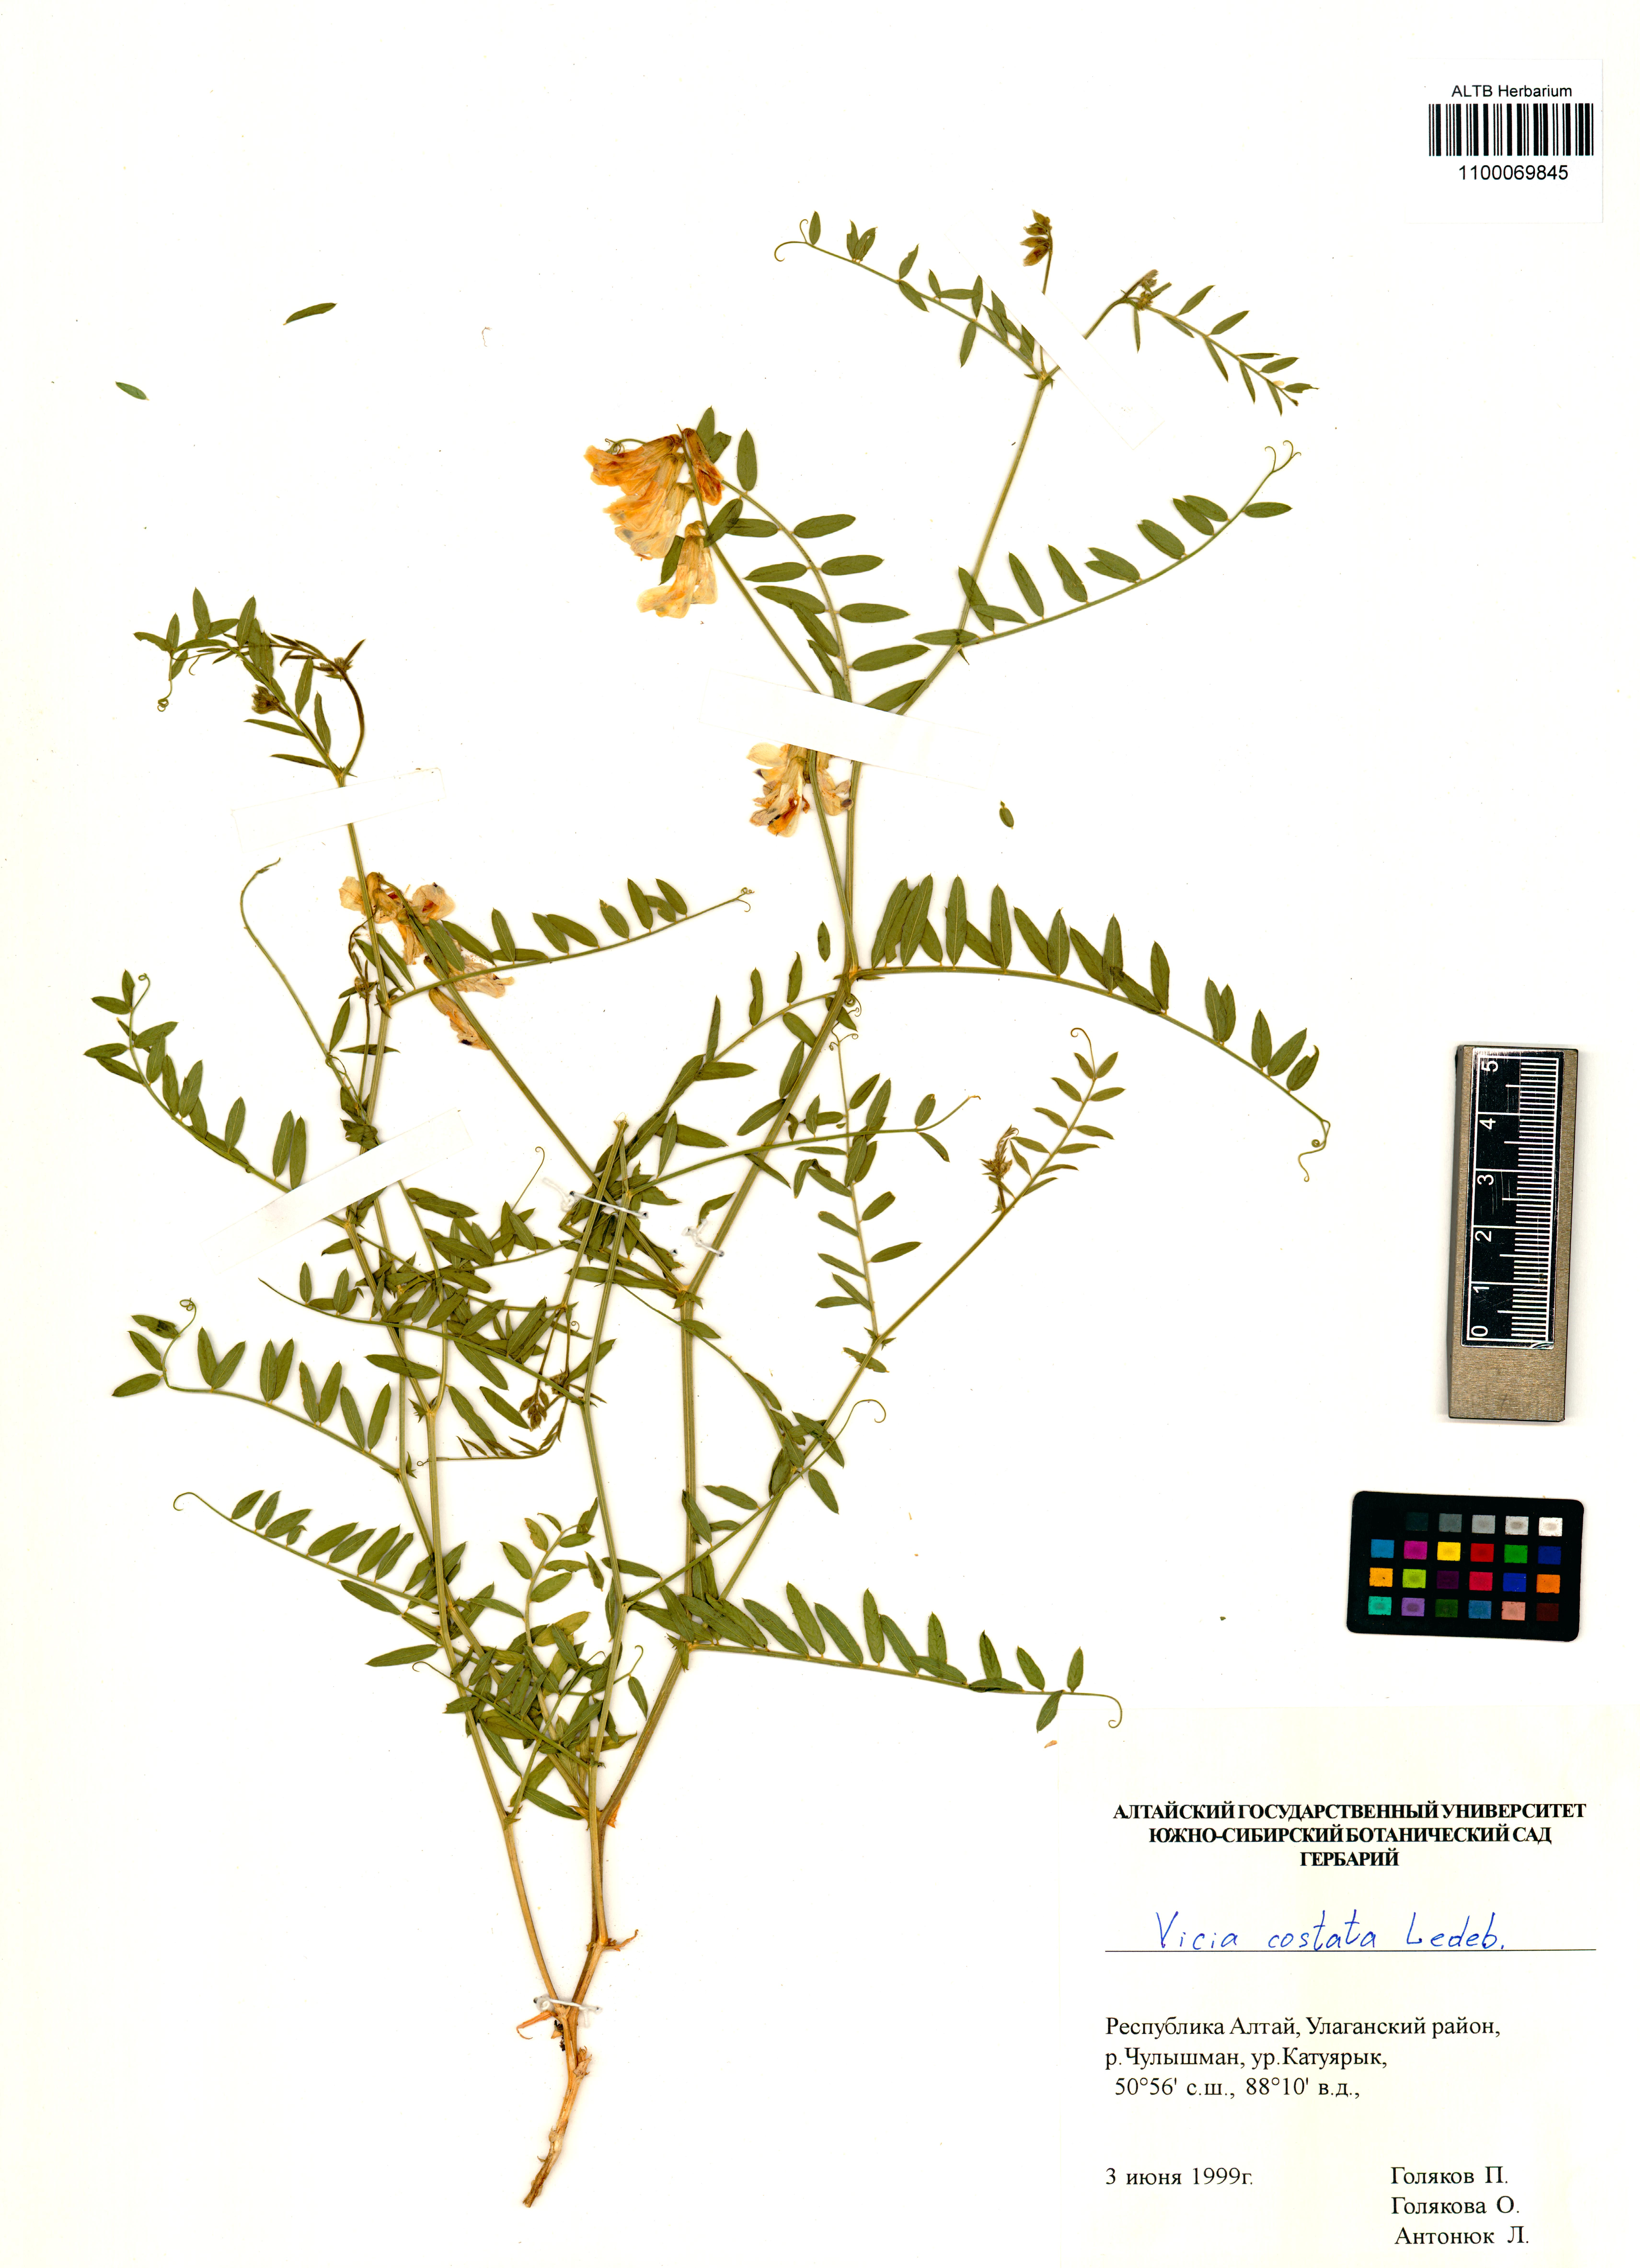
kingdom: Plantae
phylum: Tracheophyta
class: Magnoliopsida
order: Fabales
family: Fabaceae
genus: Vicia
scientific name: Vicia costata
